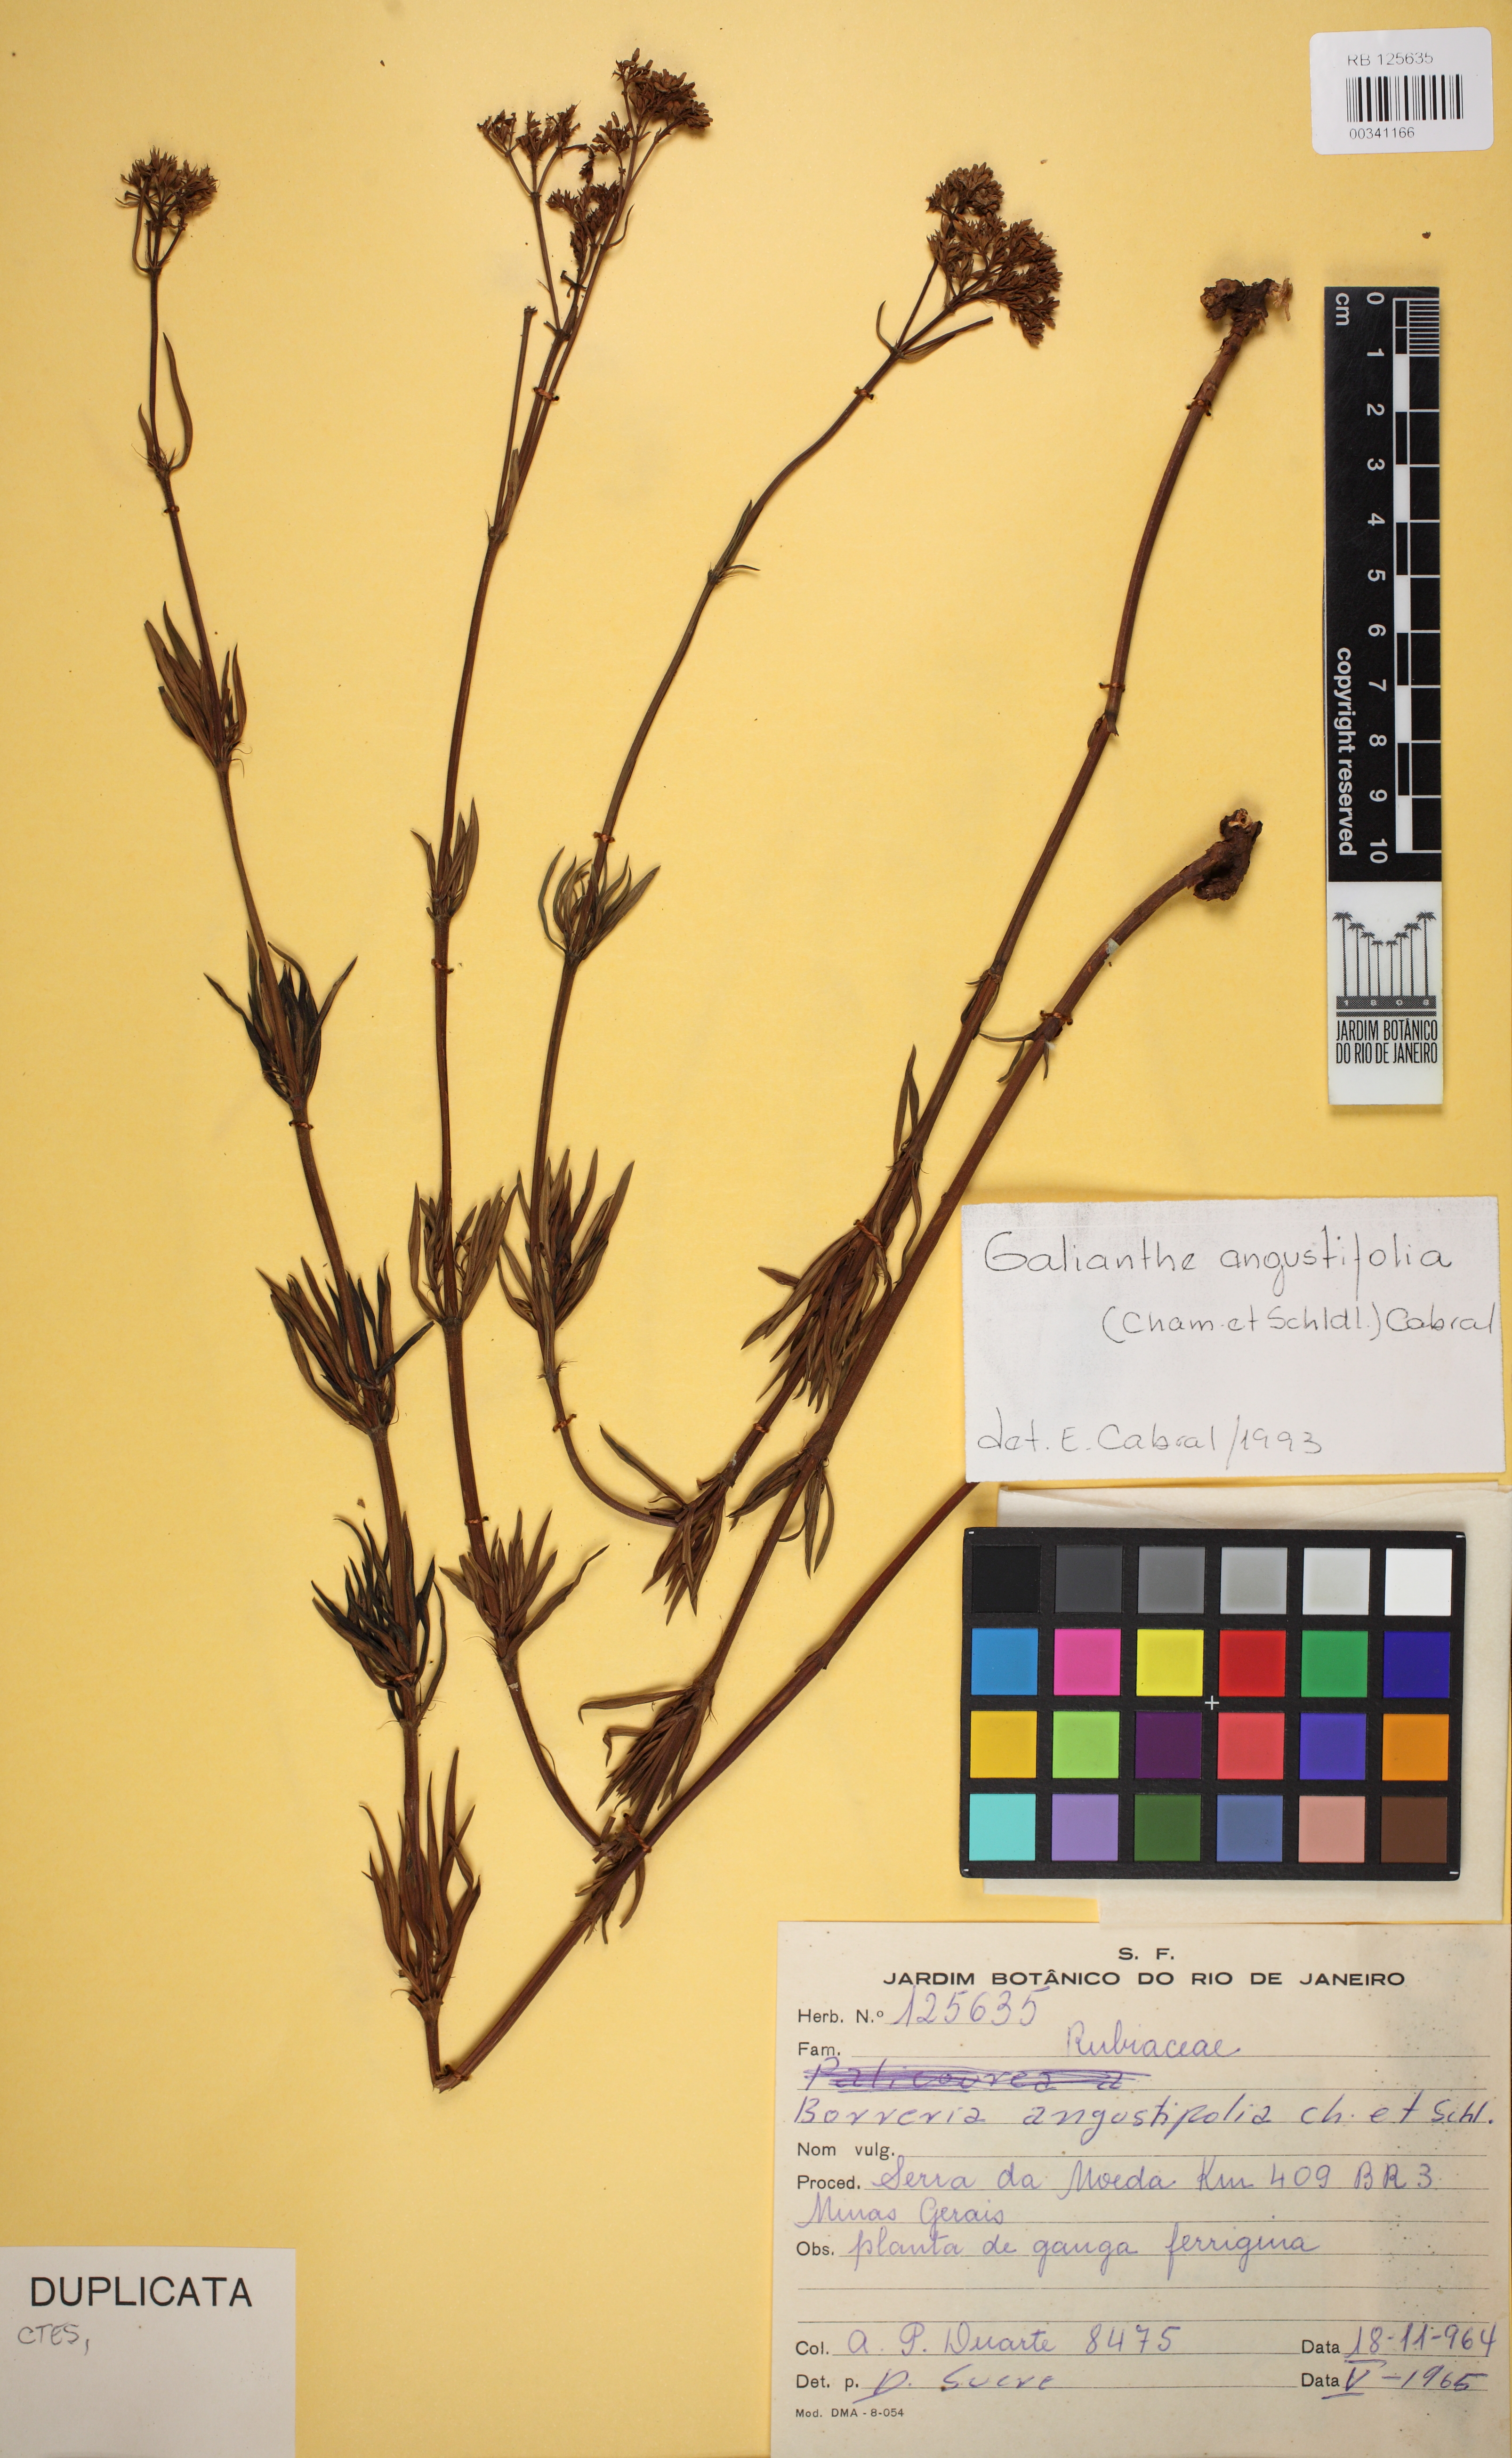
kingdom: Plantae
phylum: Tracheophyta
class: Magnoliopsida
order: Gentianales
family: Rubiaceae
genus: Galianthe
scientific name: Galianthe angustifolia
